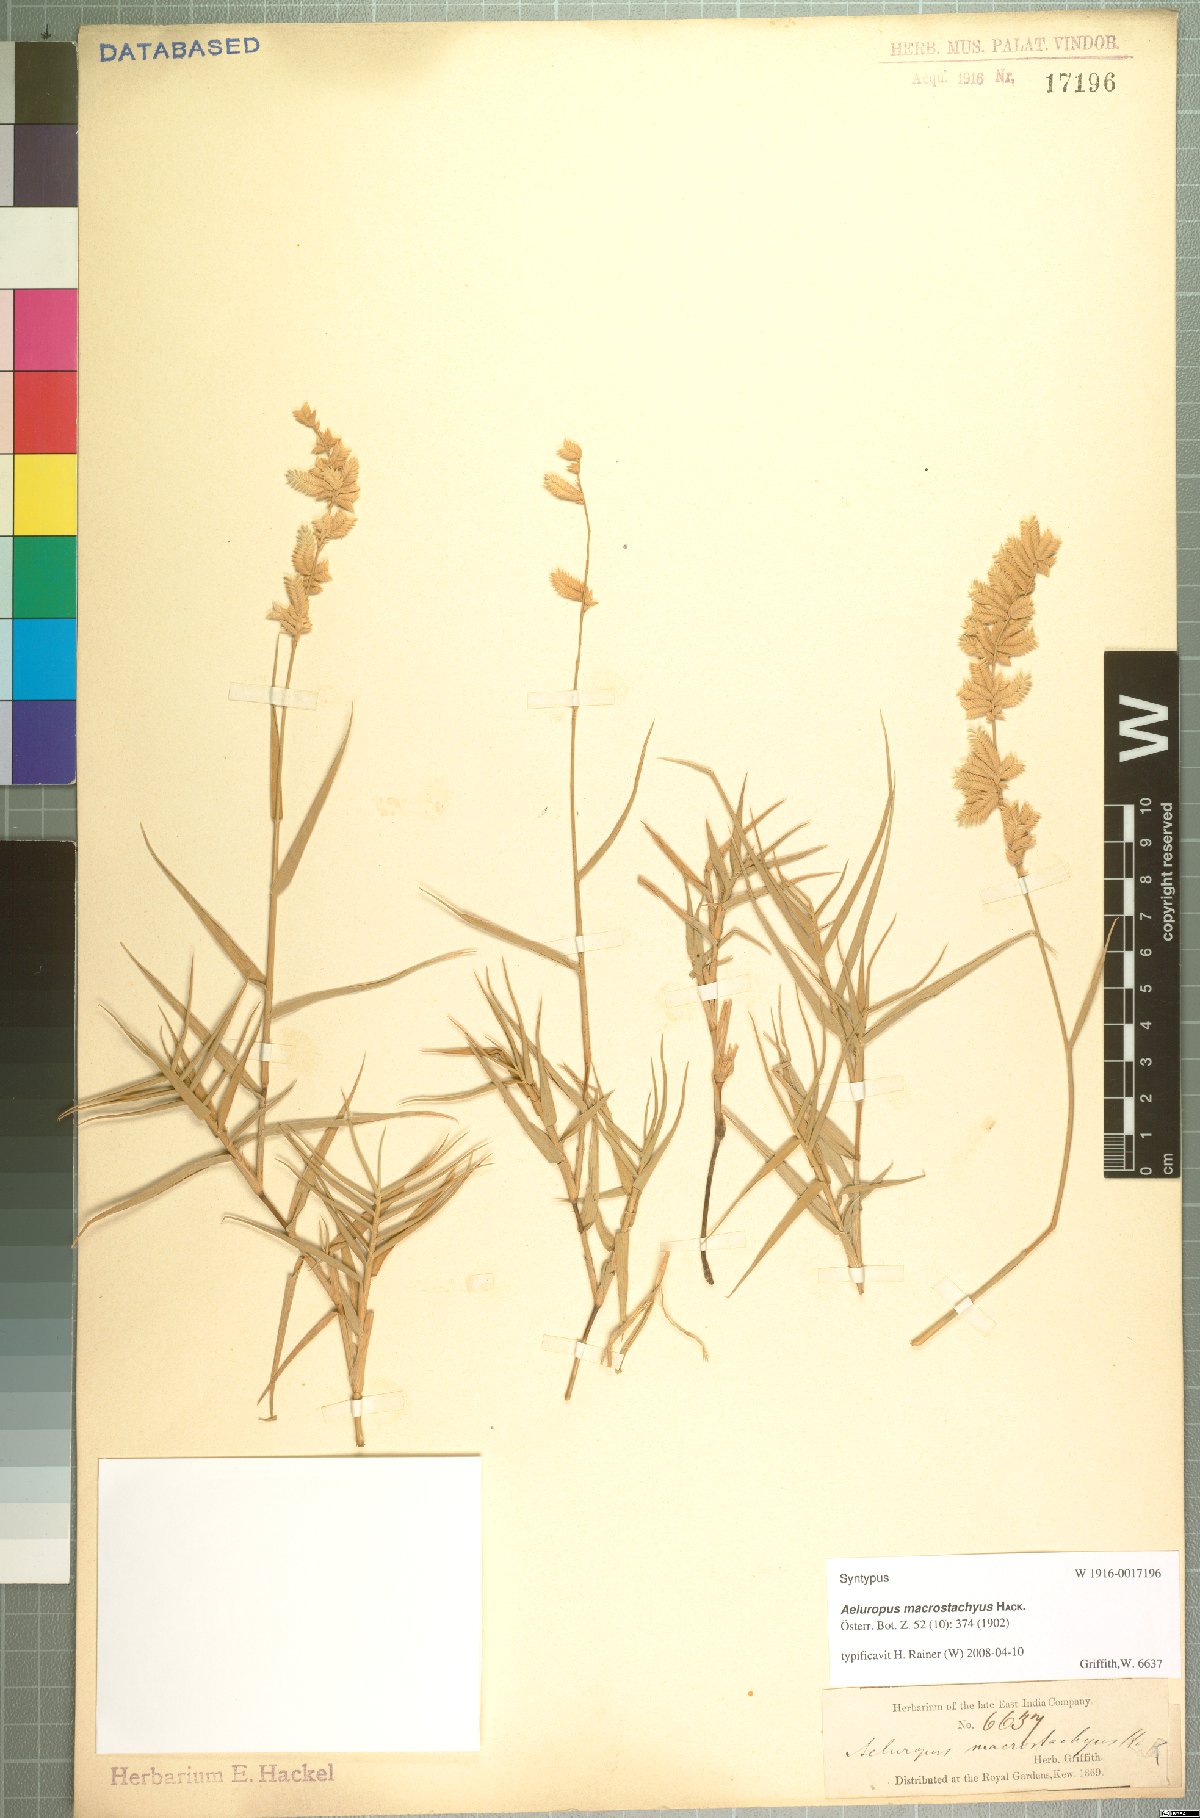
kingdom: Plantae
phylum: Tracheophyta
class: Liliopsida
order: Poales
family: Poaceae
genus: Aeluropus
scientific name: Aeluropus macrostachyus
